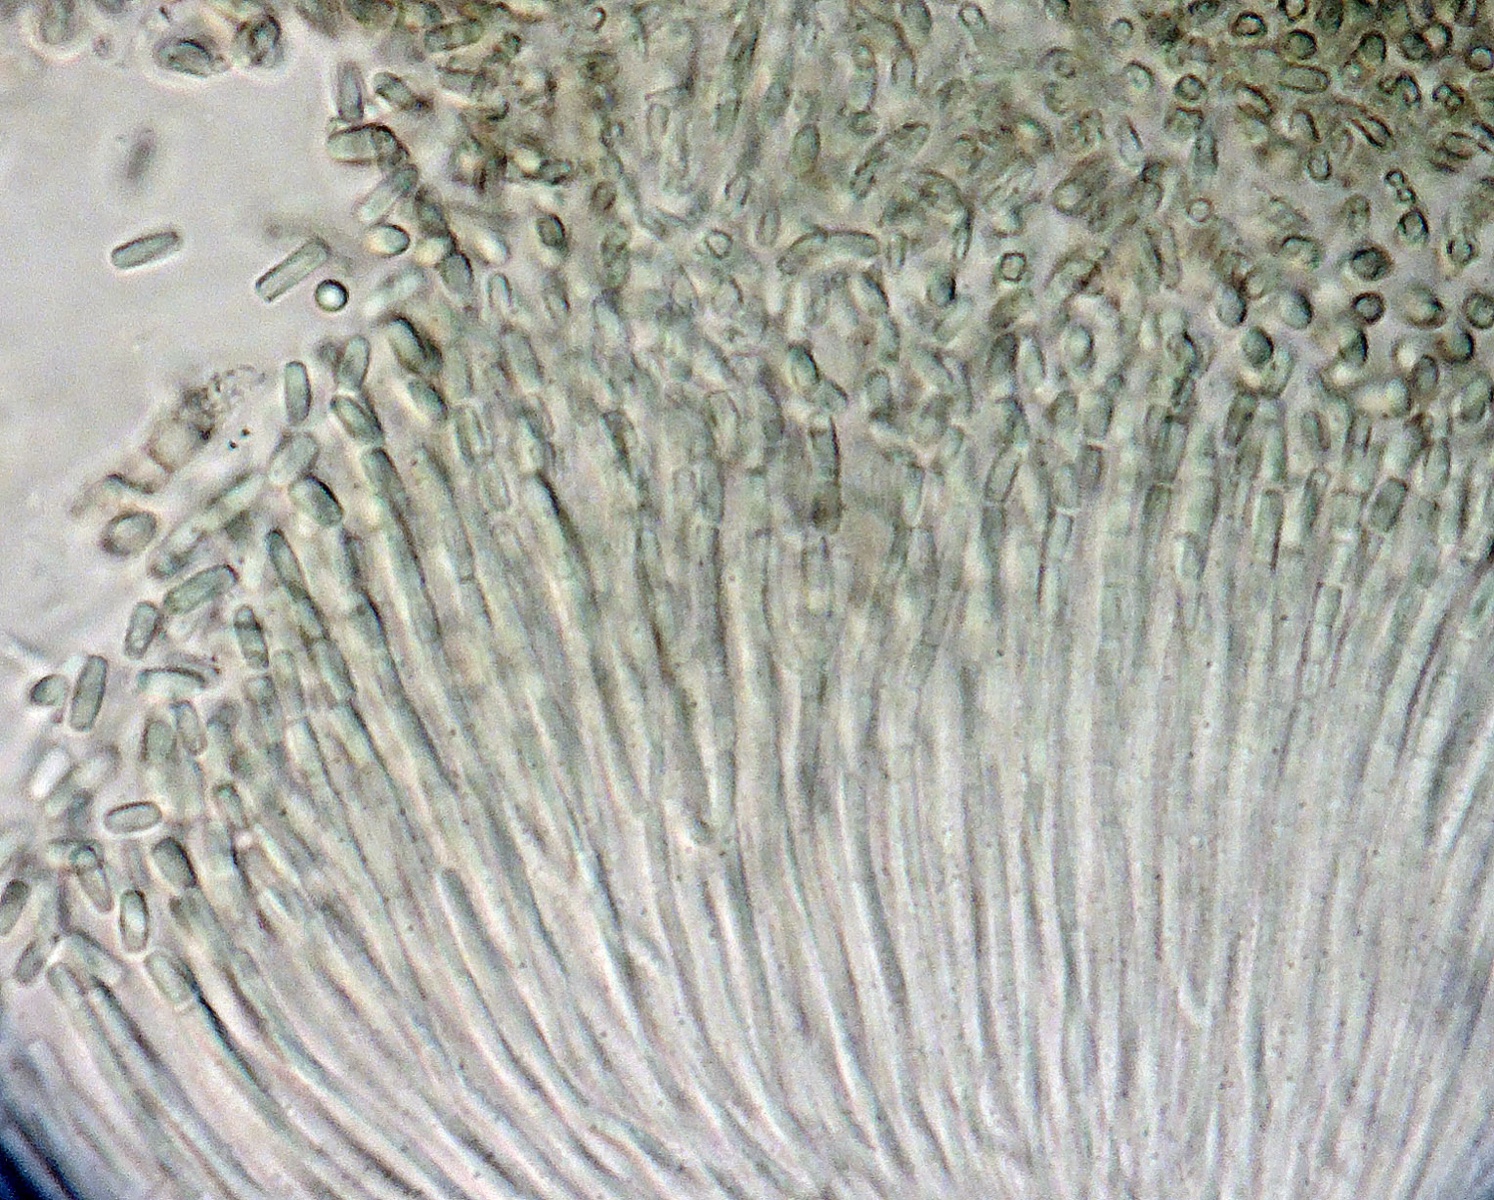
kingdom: Fungi
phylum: Ascomycota
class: Lecanoromycetes
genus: Trullula
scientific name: Trullula melanochlora
